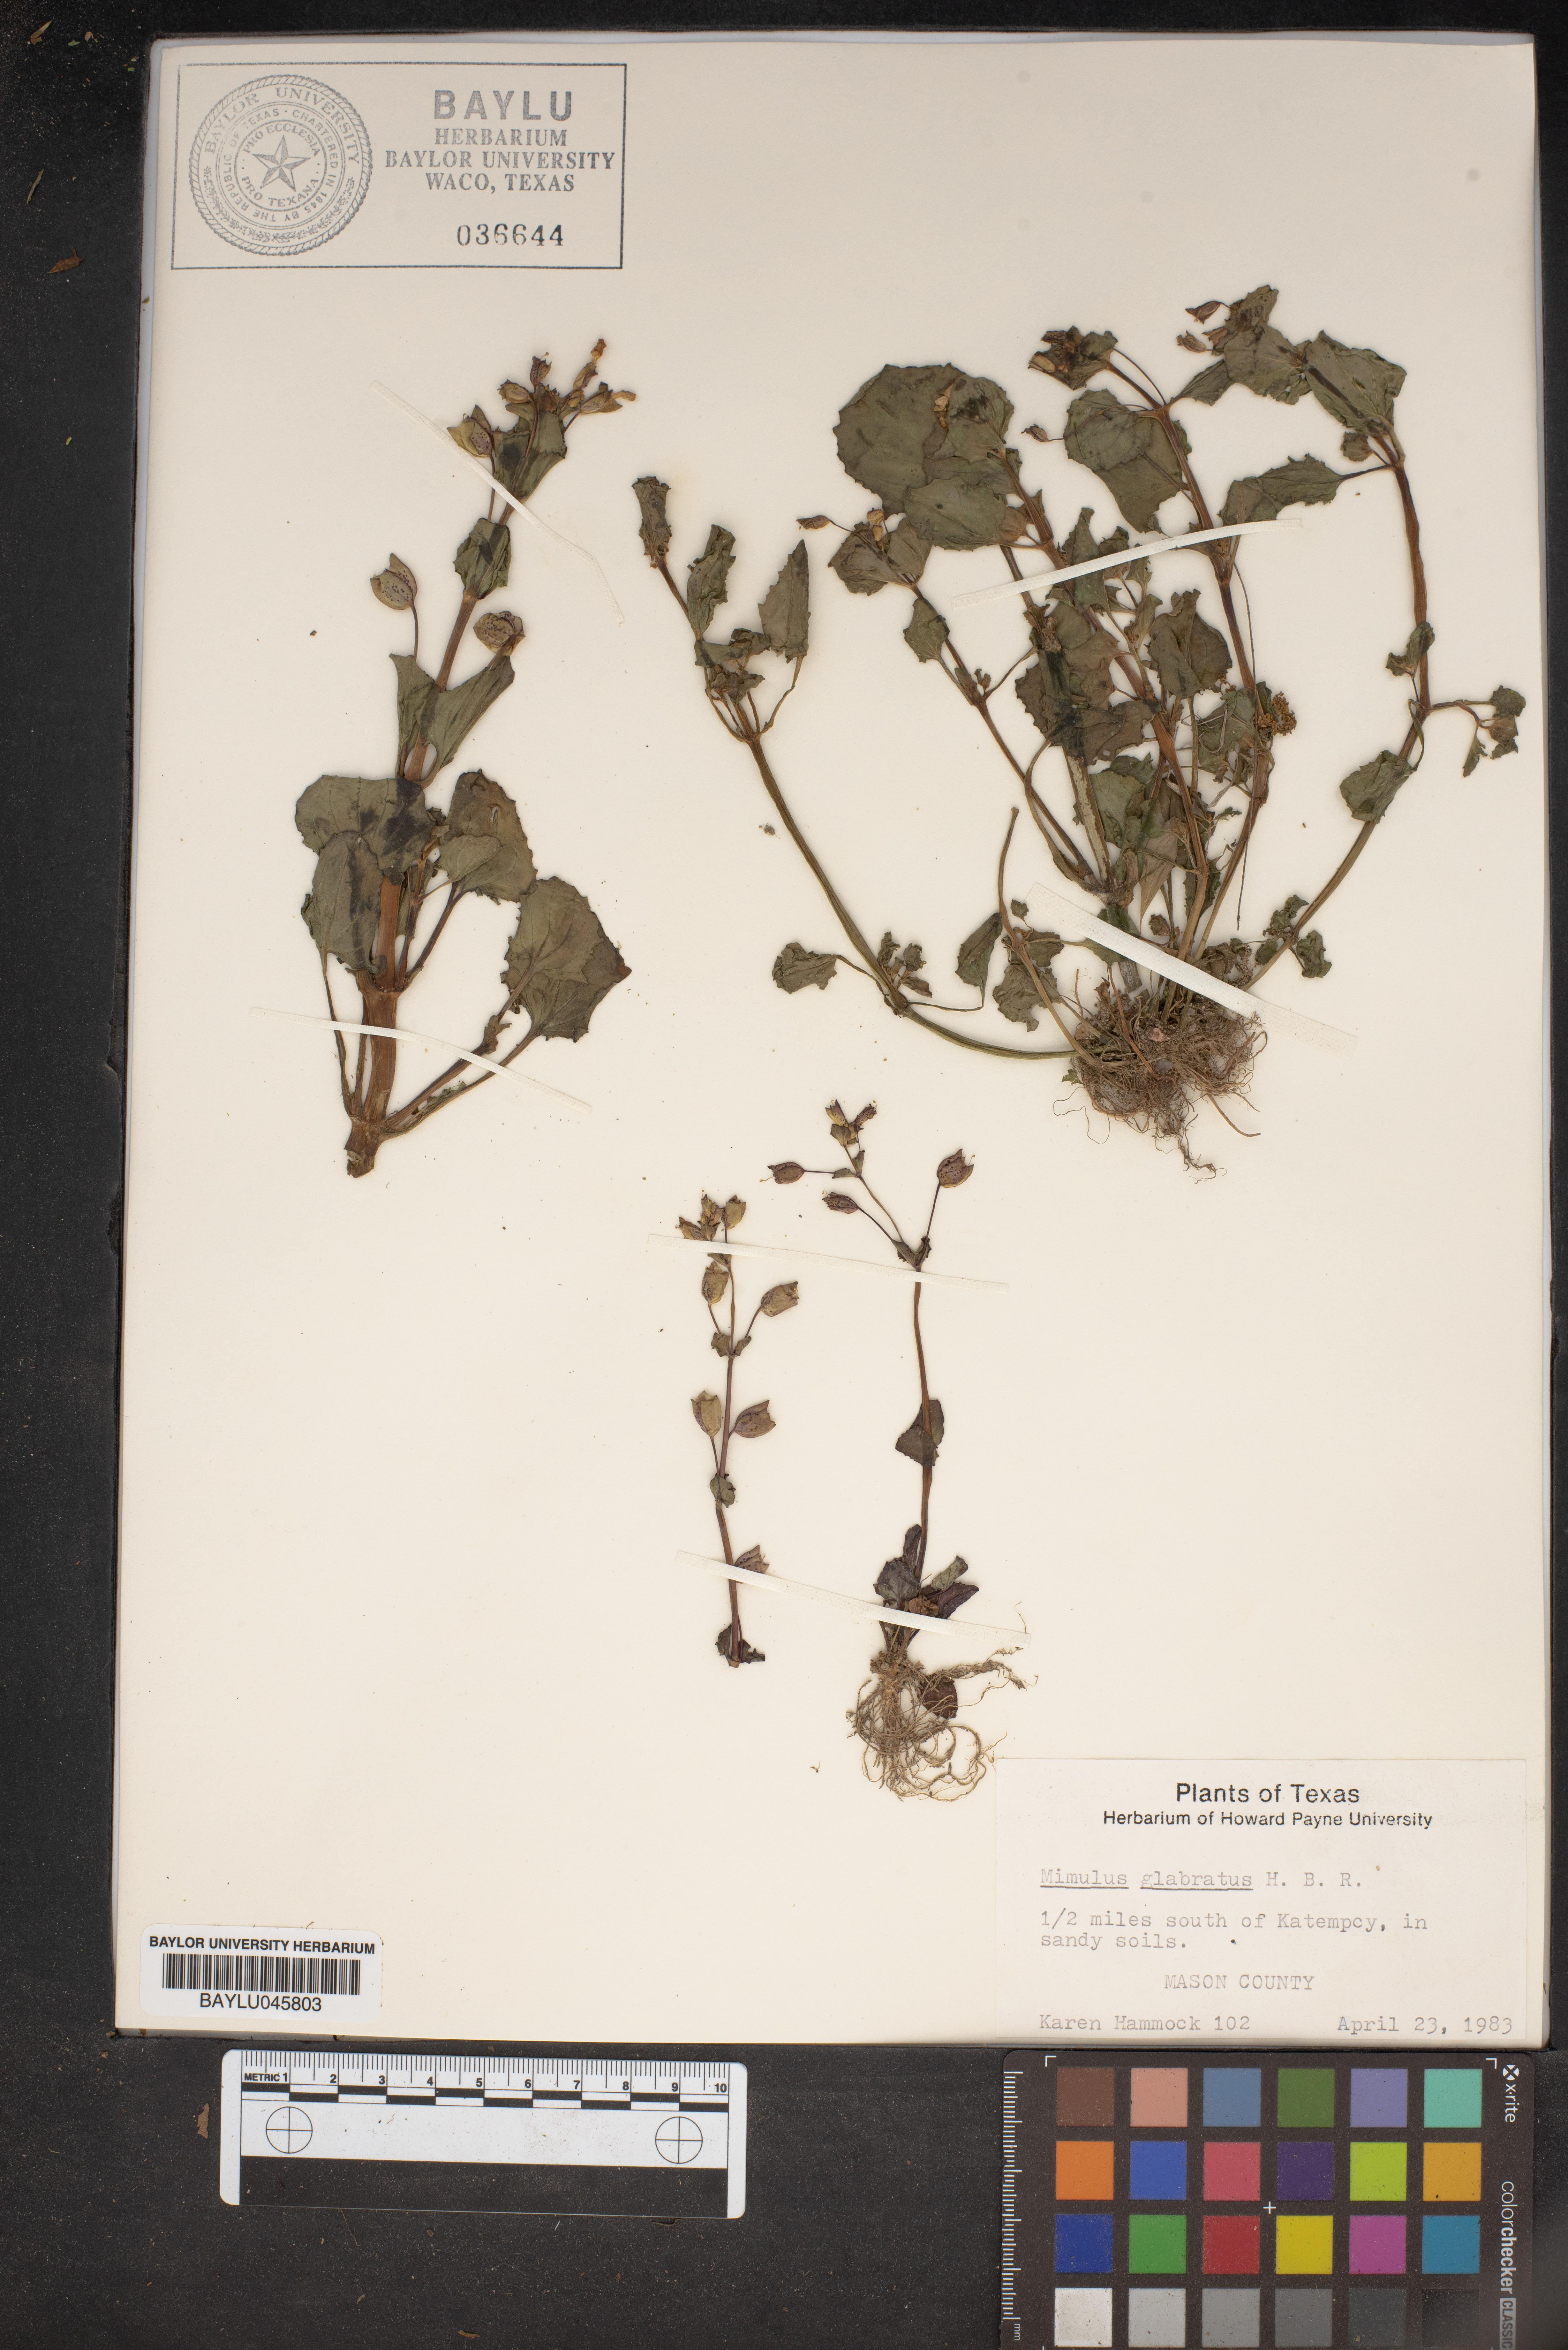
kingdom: Plantae
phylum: Tracheophyta
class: Magnoliopsida
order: Lamiales
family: Phrymaceae
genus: Erythranthe
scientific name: Erythranthe glabrata
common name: Round-leaved monkeyflower
